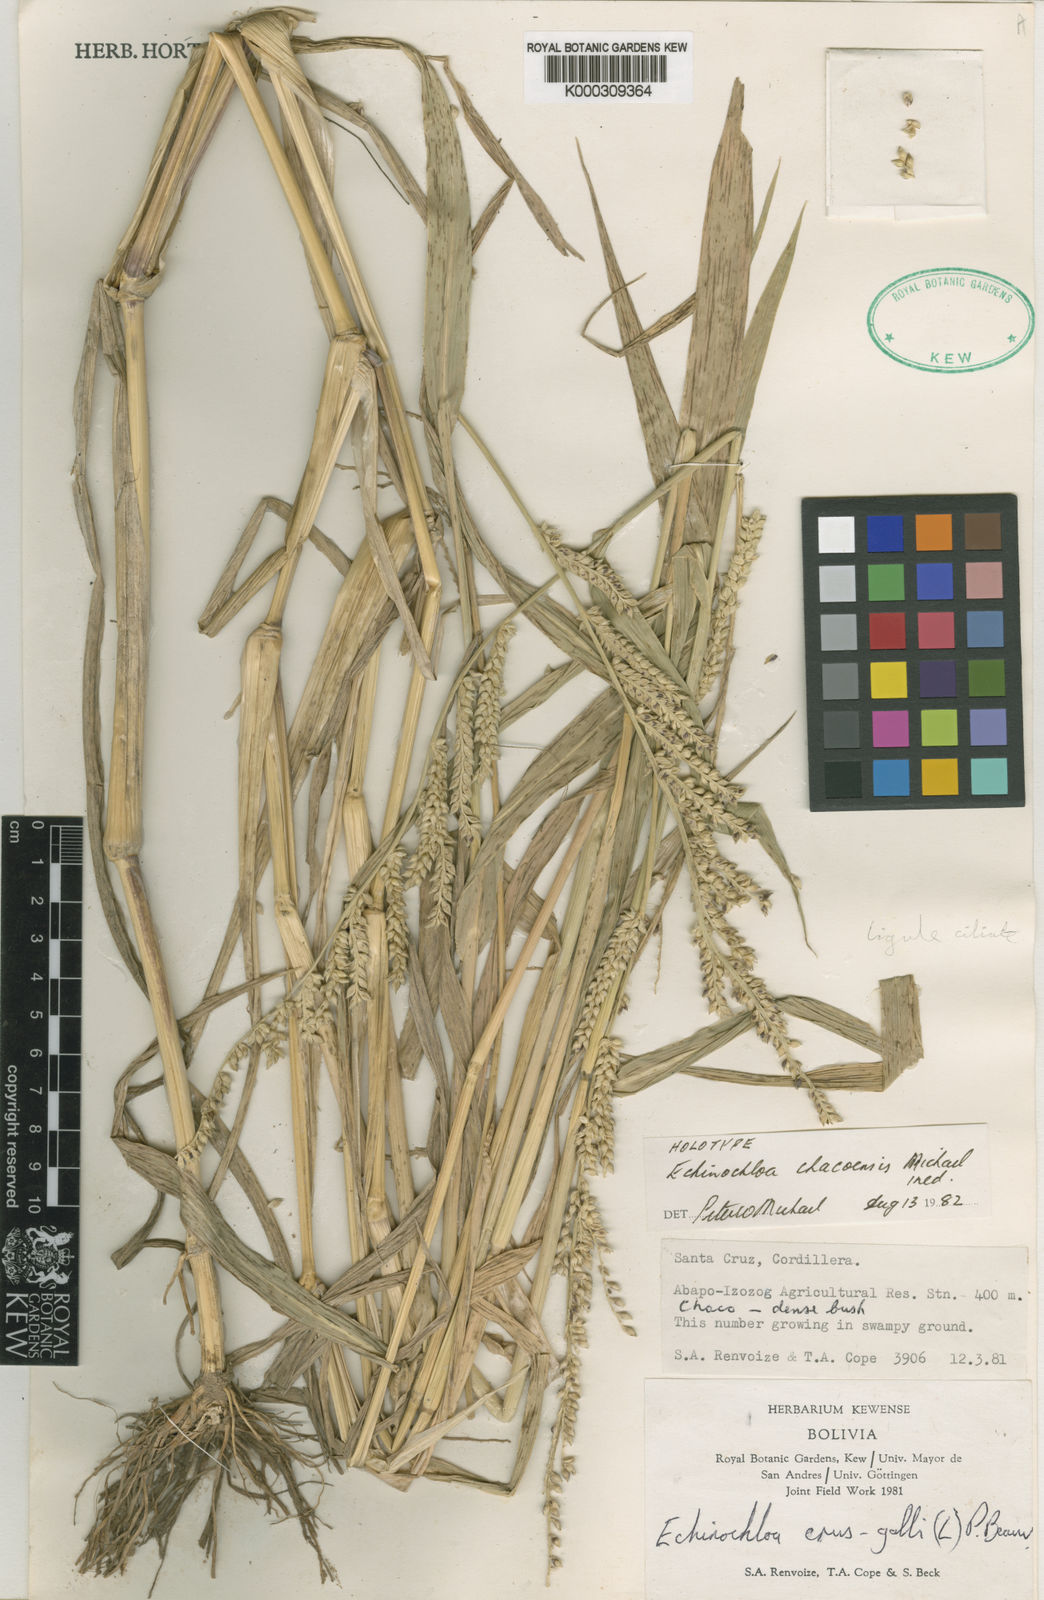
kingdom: Plantae
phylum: Tracheophyta
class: Liliopsida
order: Poales
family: Poaceae
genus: Echinochloa
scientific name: Echinochloa
